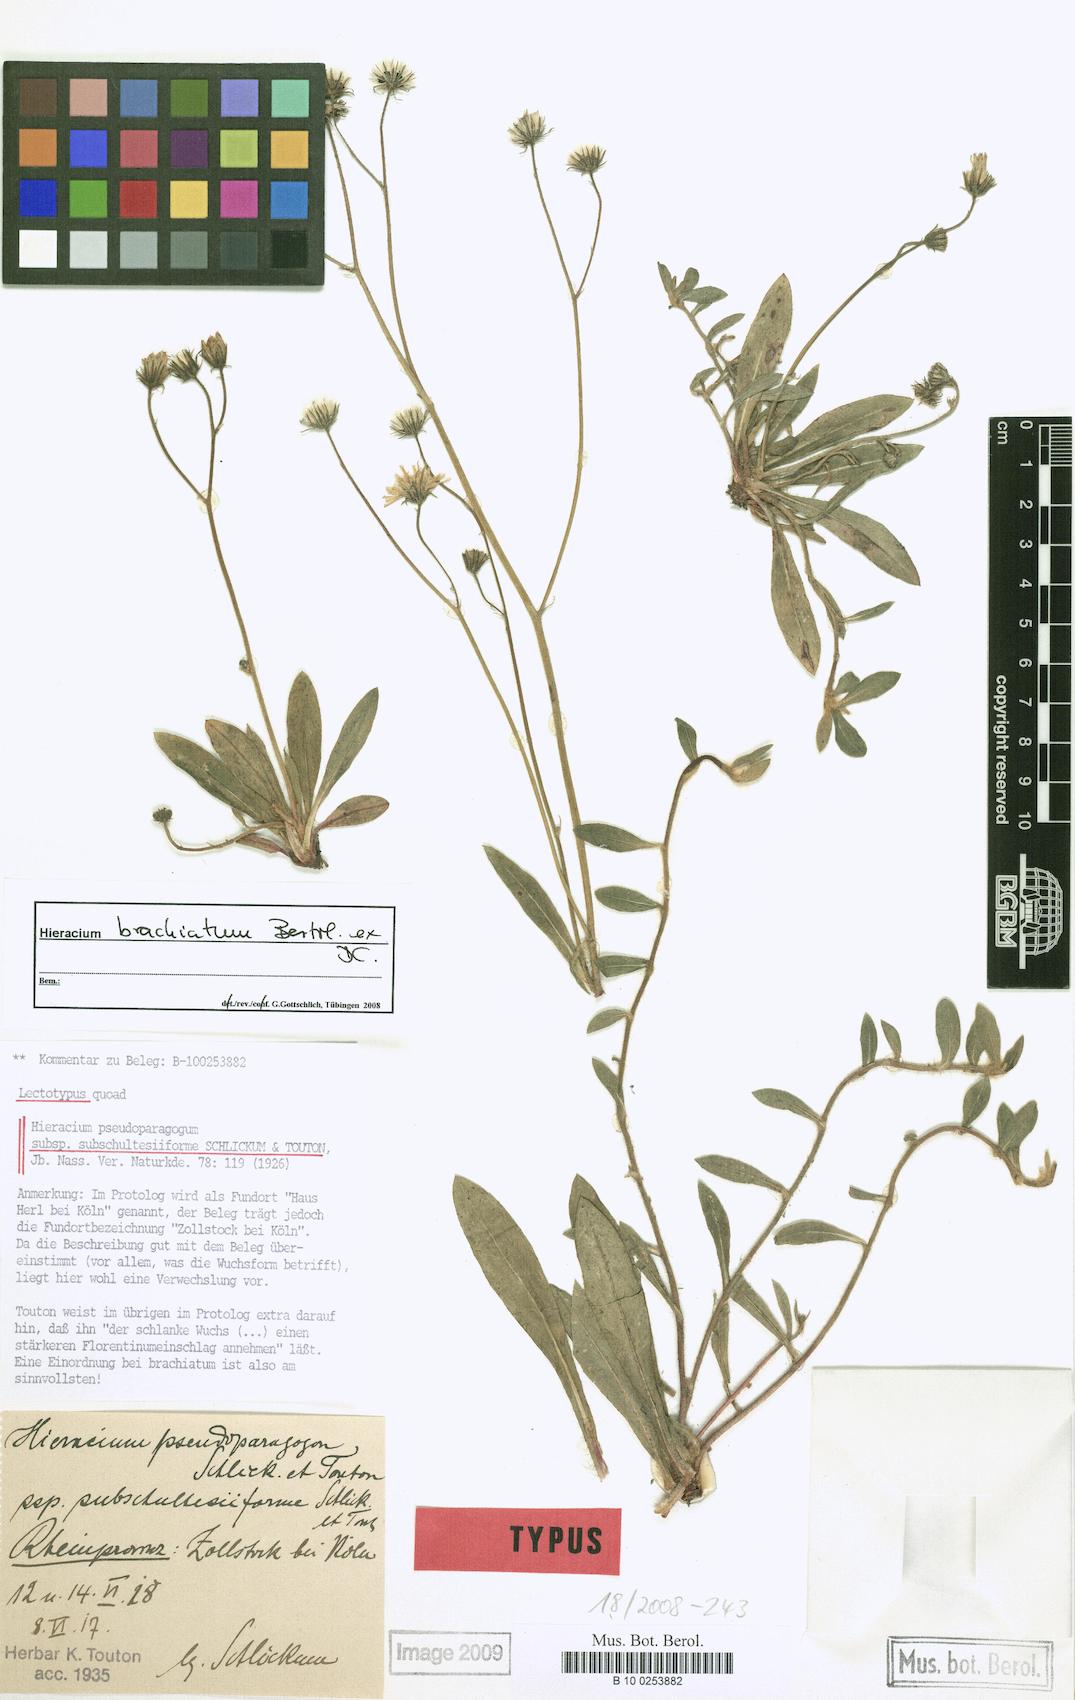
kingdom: Plantae
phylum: Tracheophyta
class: Magnoliopsida
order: Asterales
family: Asteraceae
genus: Pilosella
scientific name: Pilosella acutifolia
